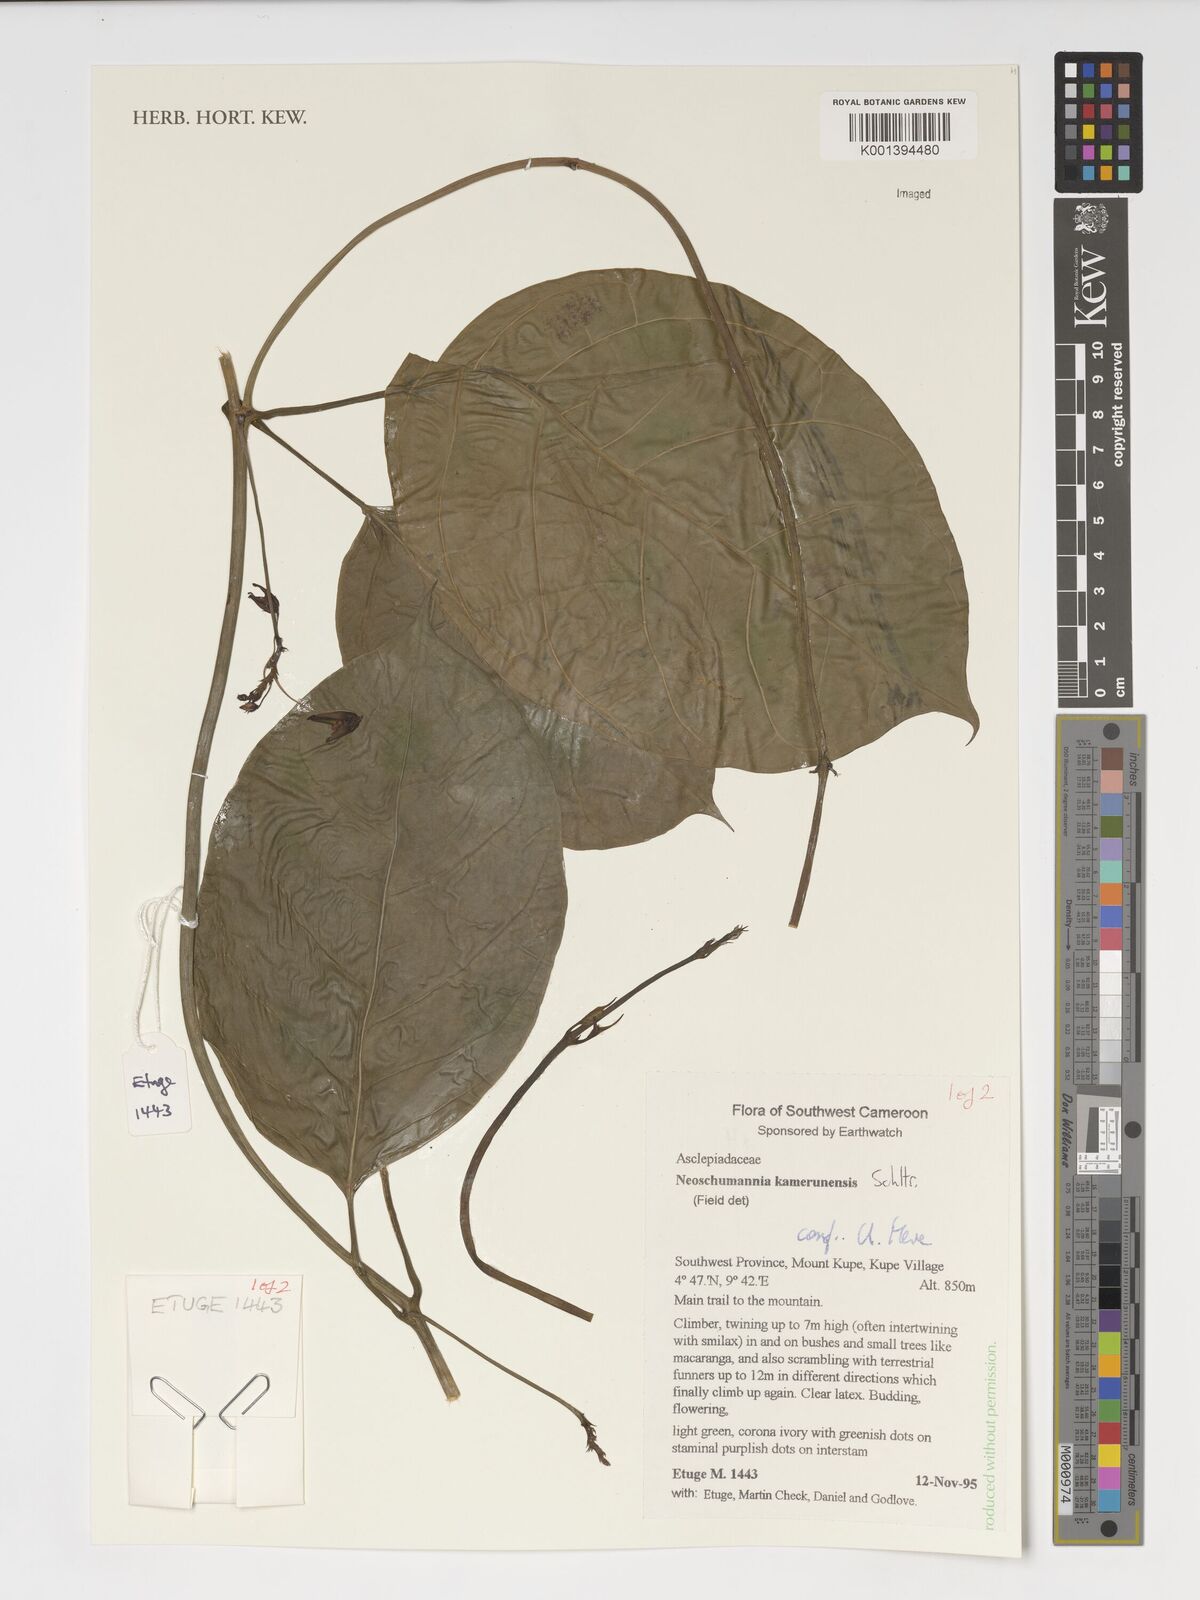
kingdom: Plantae
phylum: Tracheophyta
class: Magnoliopsida
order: Gentianales
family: Apocynaceae
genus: Neoschumannia
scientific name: Neoschumannia kamerunensis
